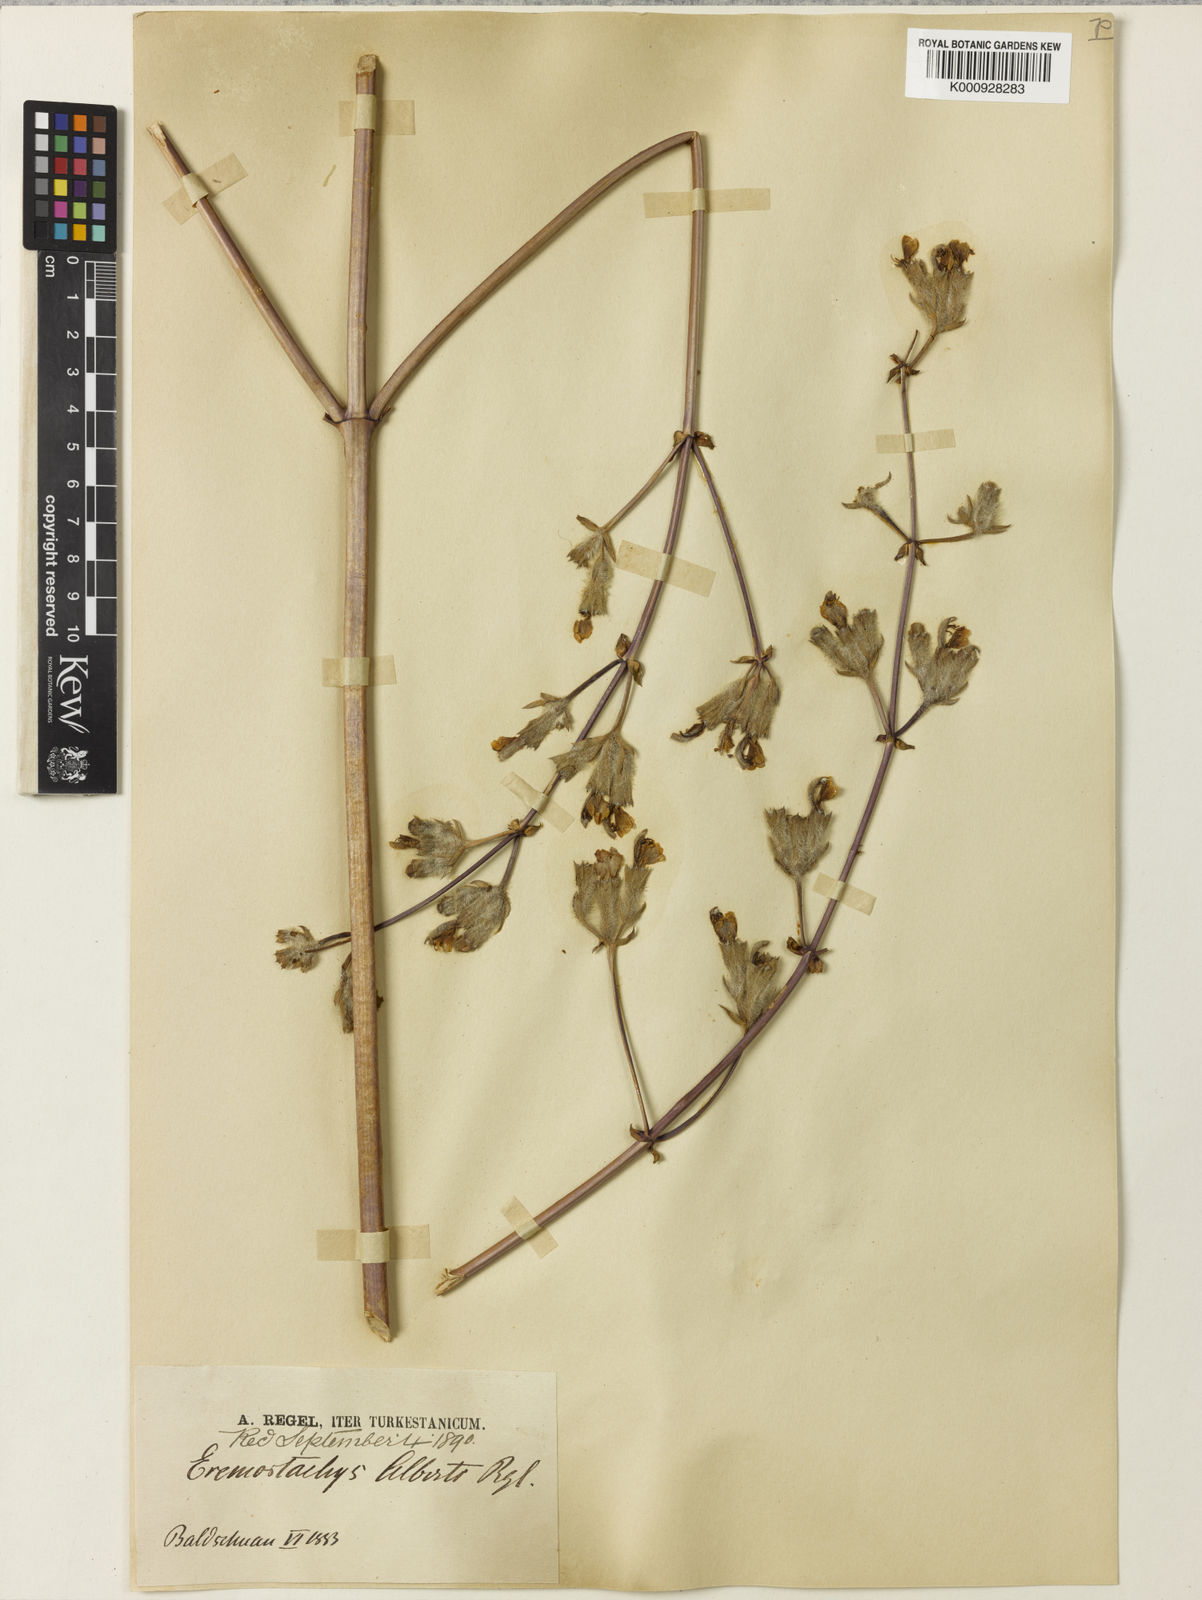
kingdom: Plantae
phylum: Tracheophyta
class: Magnoliopsida
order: Lamiales
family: Lamiaceae
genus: Phlomoides
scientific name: Phlomoides alberti
